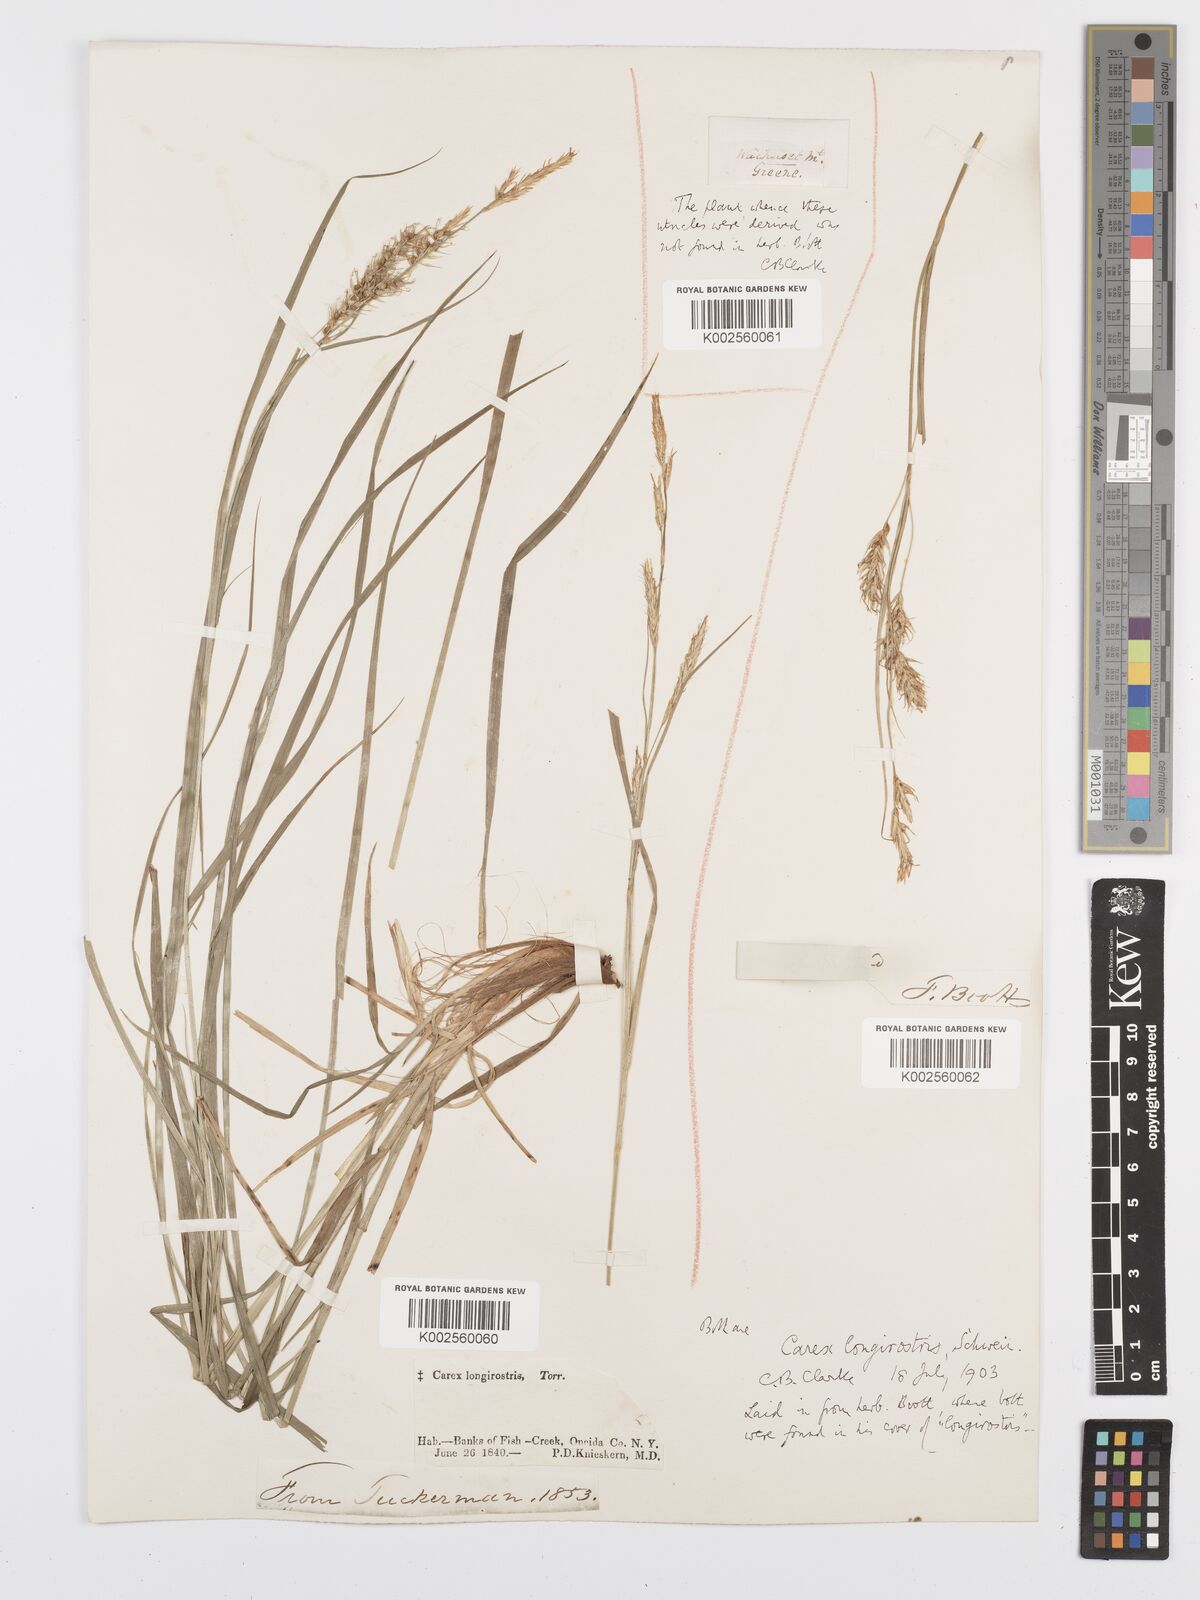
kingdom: Plantae
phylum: Tracheophyta
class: Liliopsida
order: Poales
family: Cyperaceae
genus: Carex
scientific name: Carex sprengelii
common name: Long-beaked sedge
